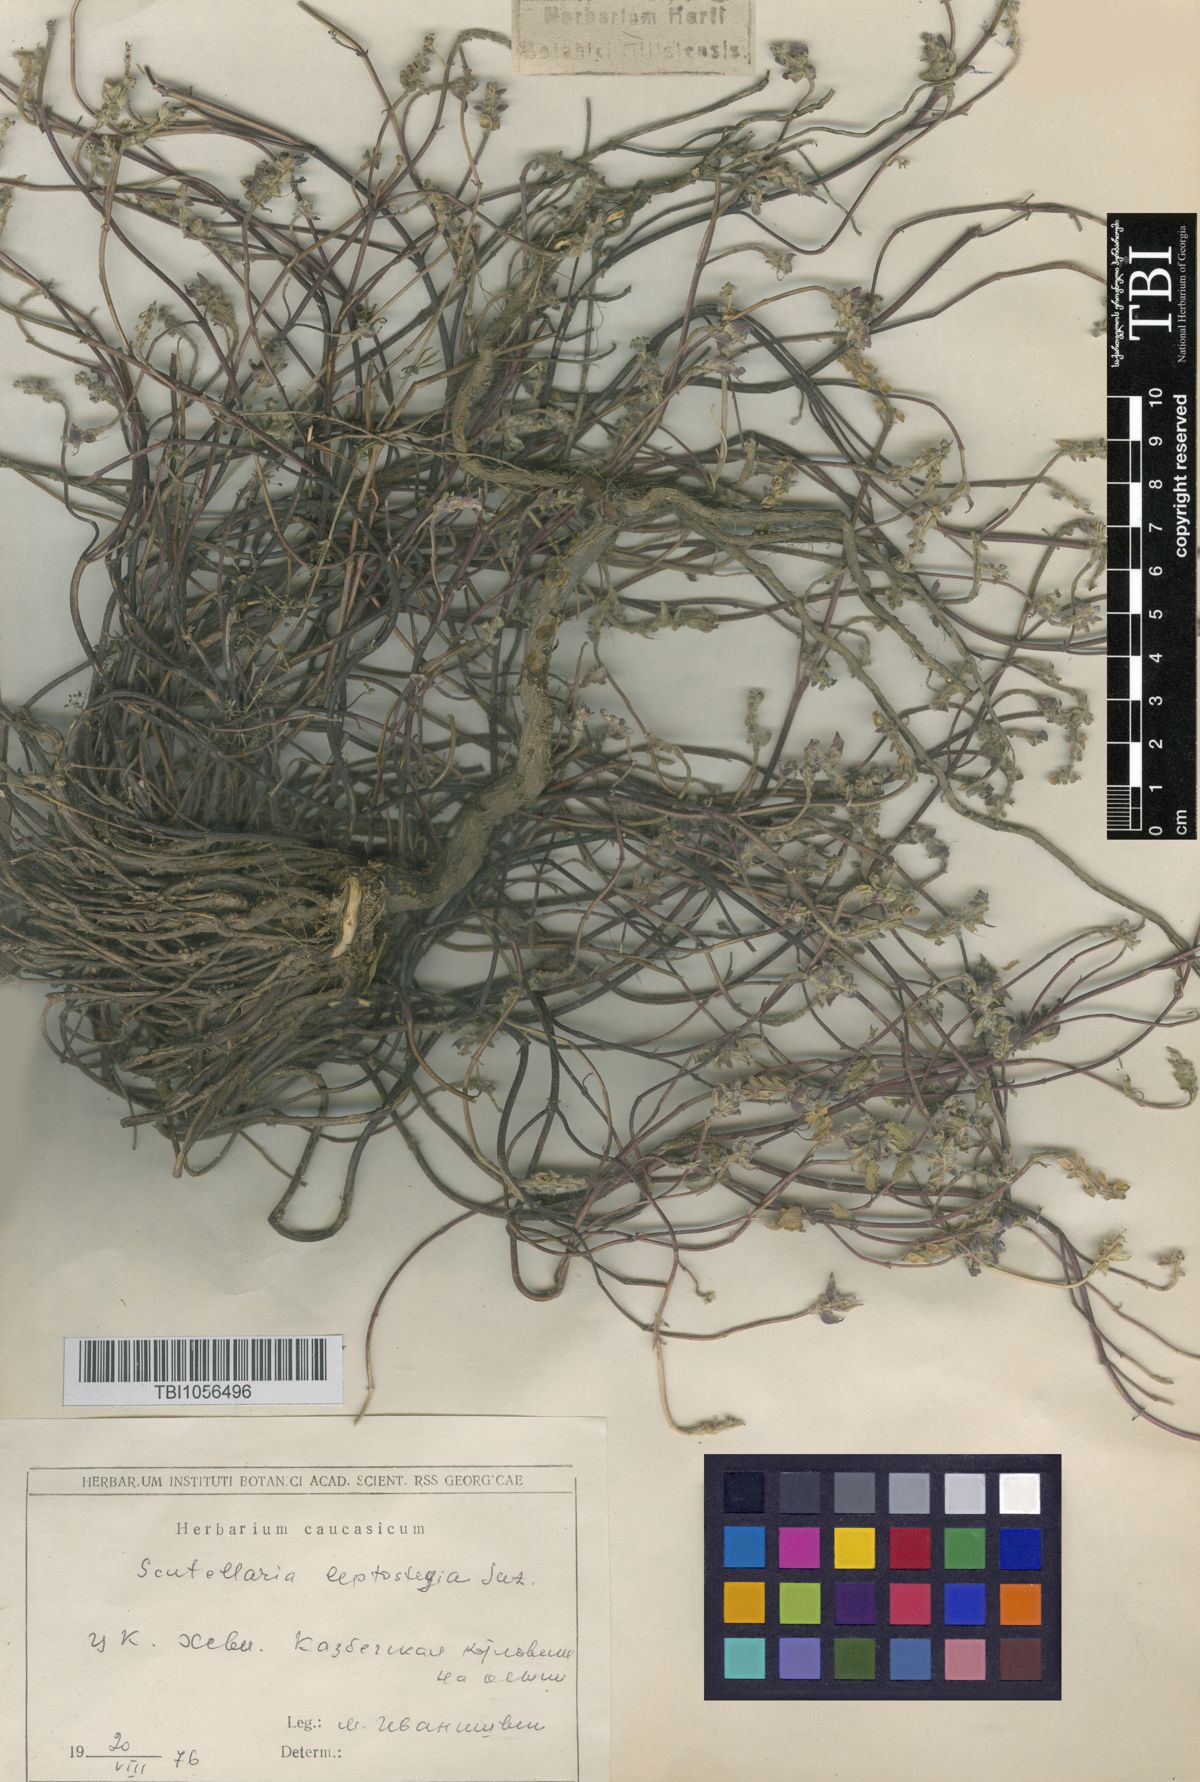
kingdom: Plantae
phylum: Tracheophyta
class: Magnoliopsida
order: Lamiales
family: Lamiaceae
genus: Scutellaria
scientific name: Scutellaria leptostegia
